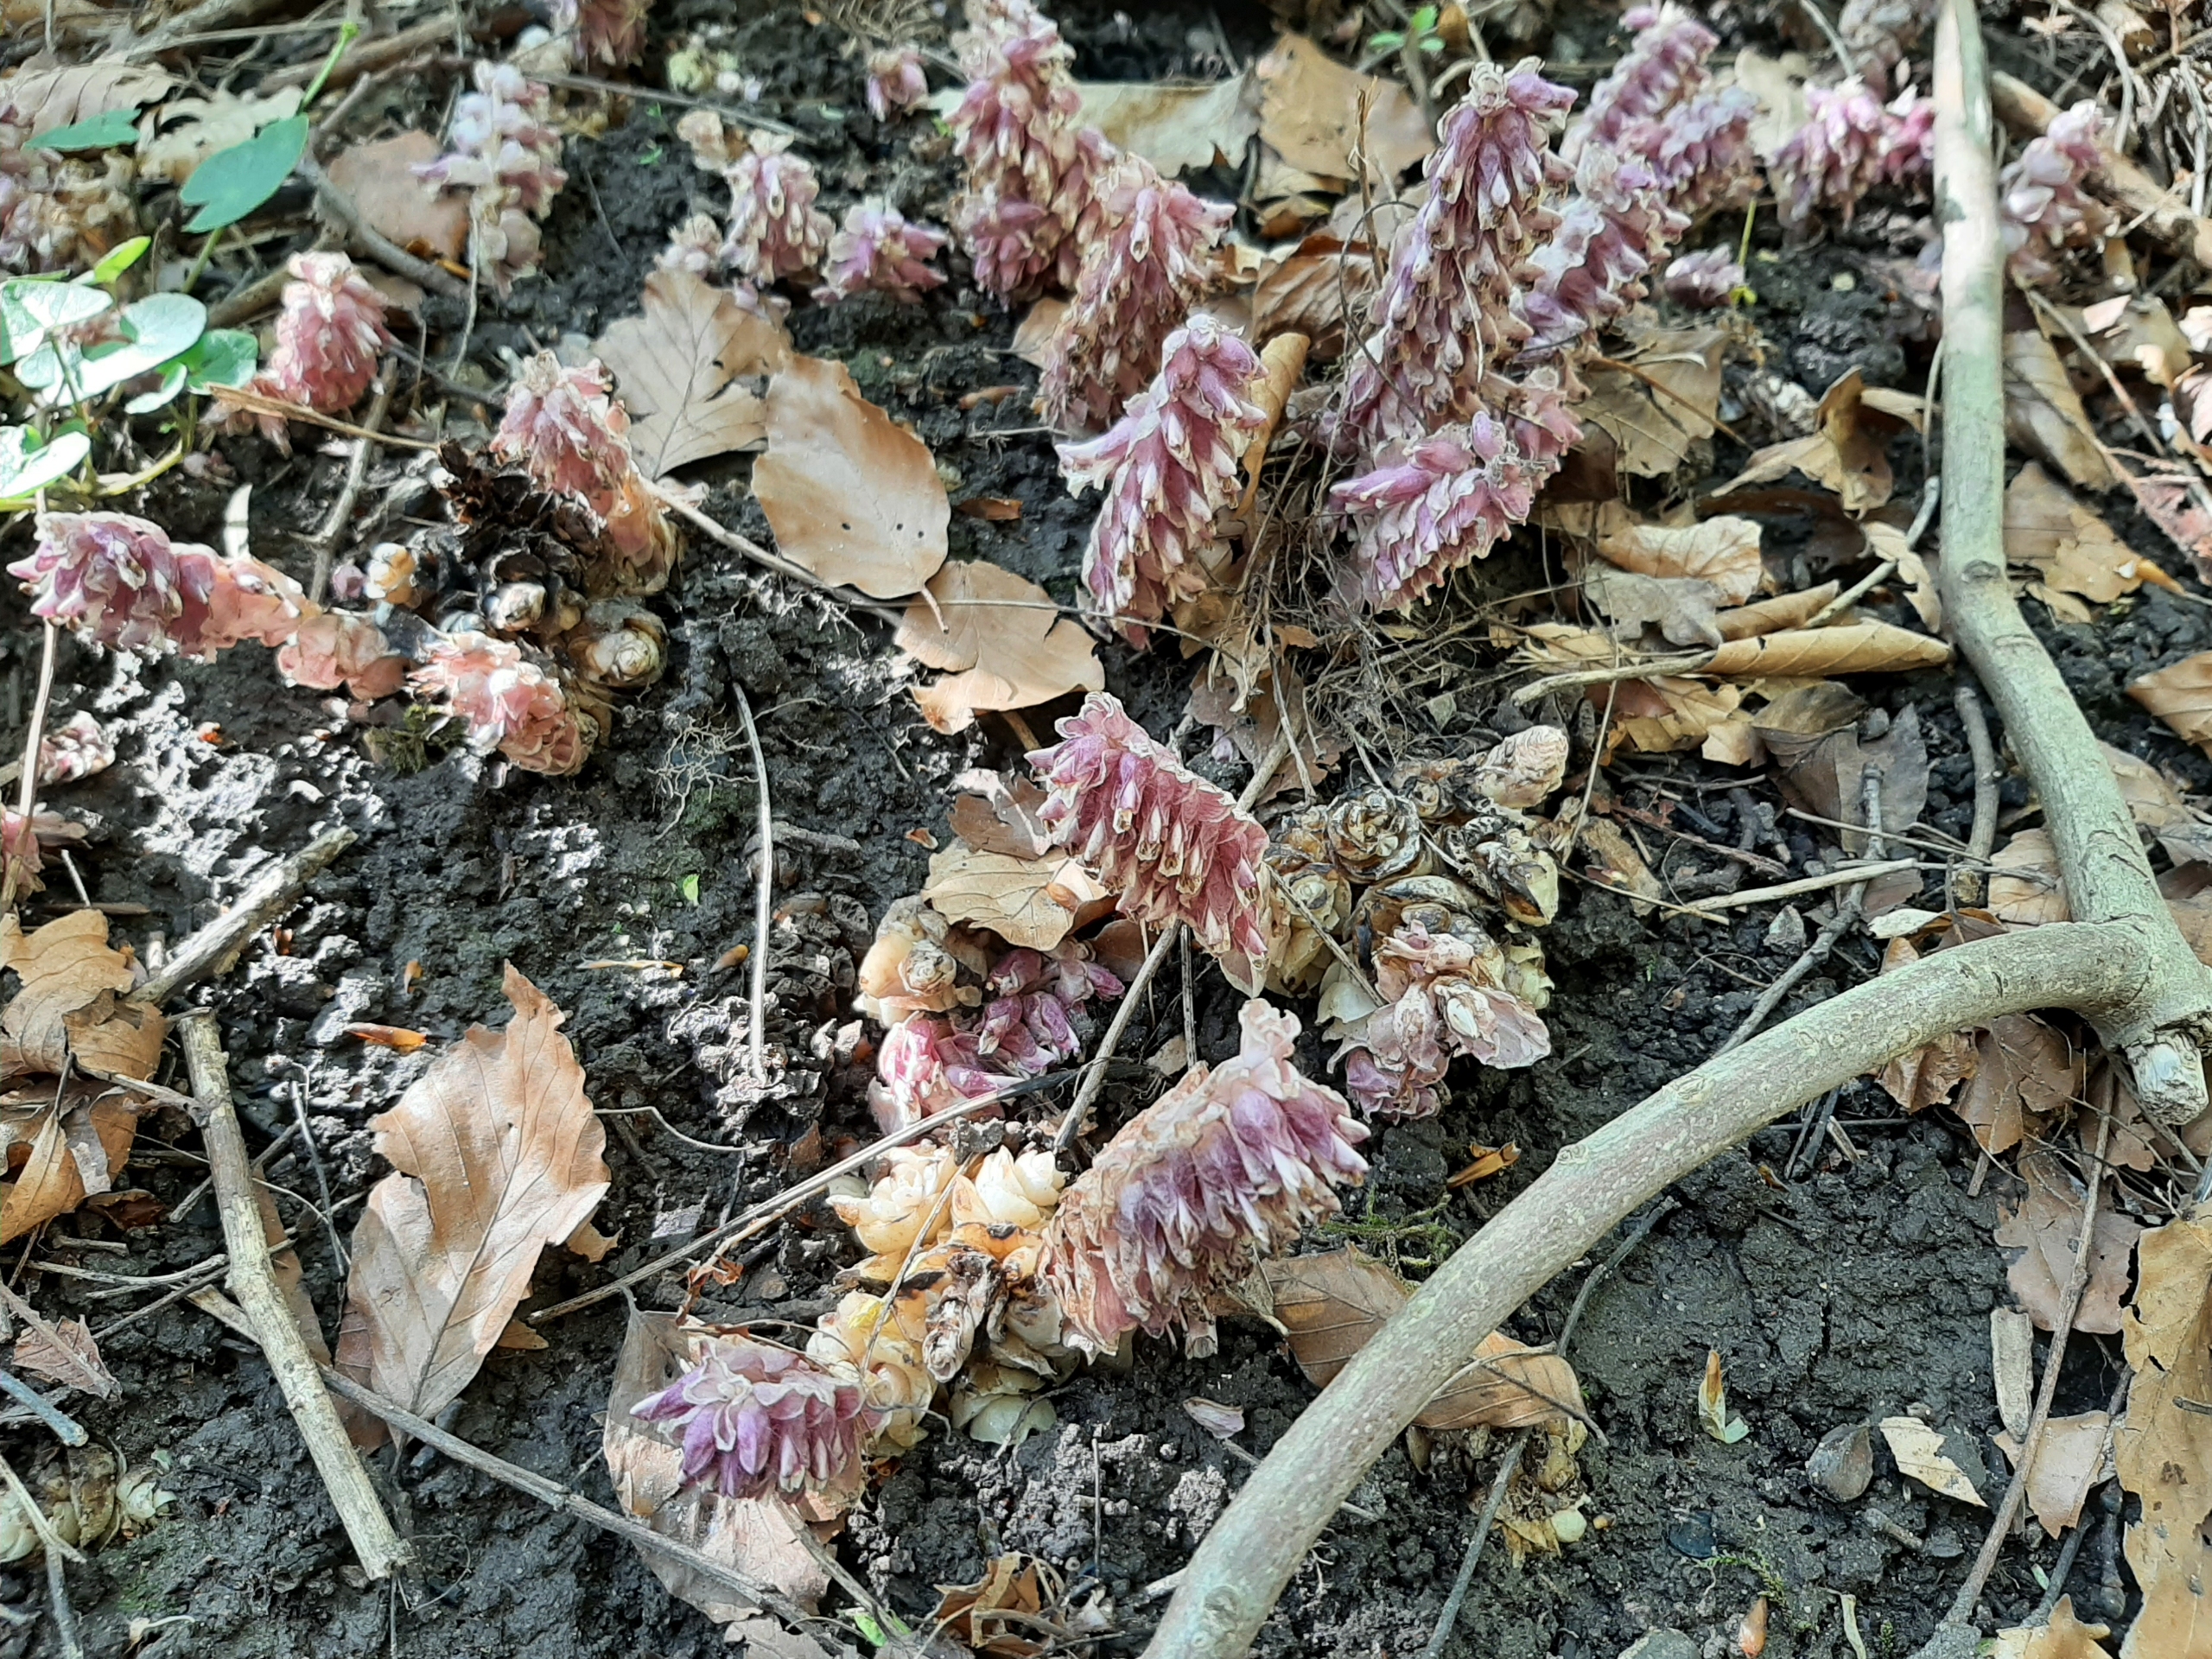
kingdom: Plantae
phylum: Tracheophyta
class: Magnoliopsida
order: Lamiales
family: Orobanchaceae
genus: Lathraea
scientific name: Lathraea squamaria
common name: Skælrod
